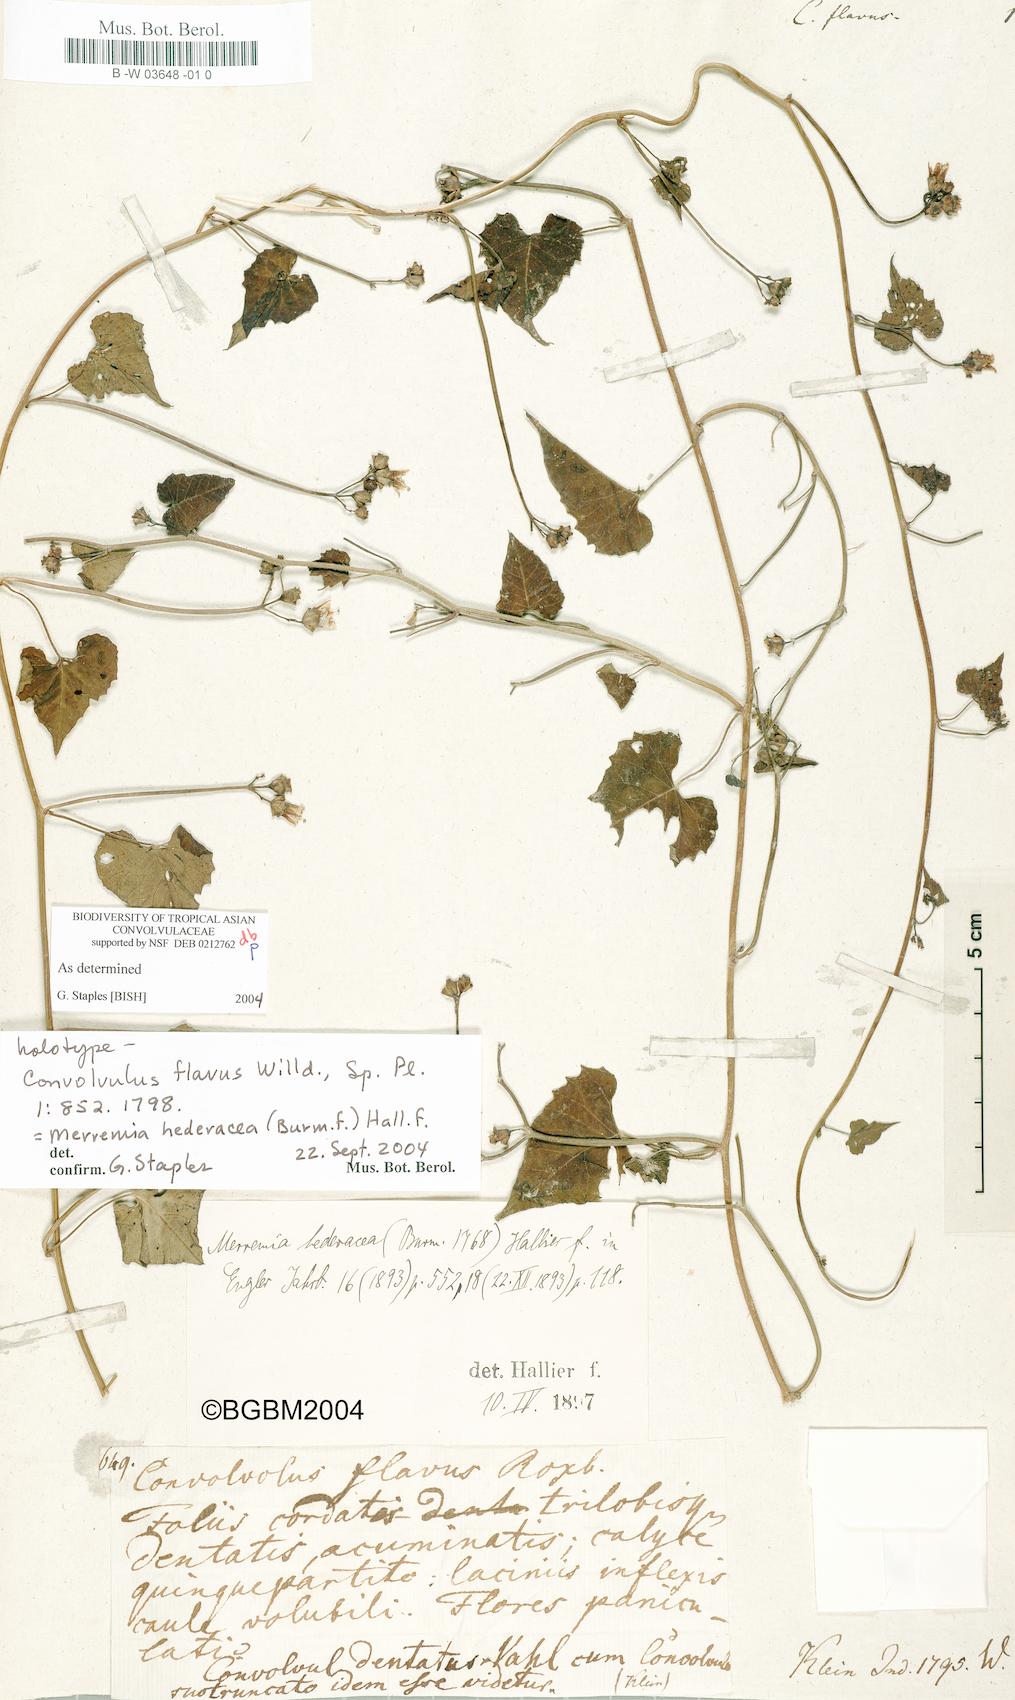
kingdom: Plantae
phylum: Tracheophyta
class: Magnoliopsida
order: Solanales
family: Convolvulaceae
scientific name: Convolvulaceae
